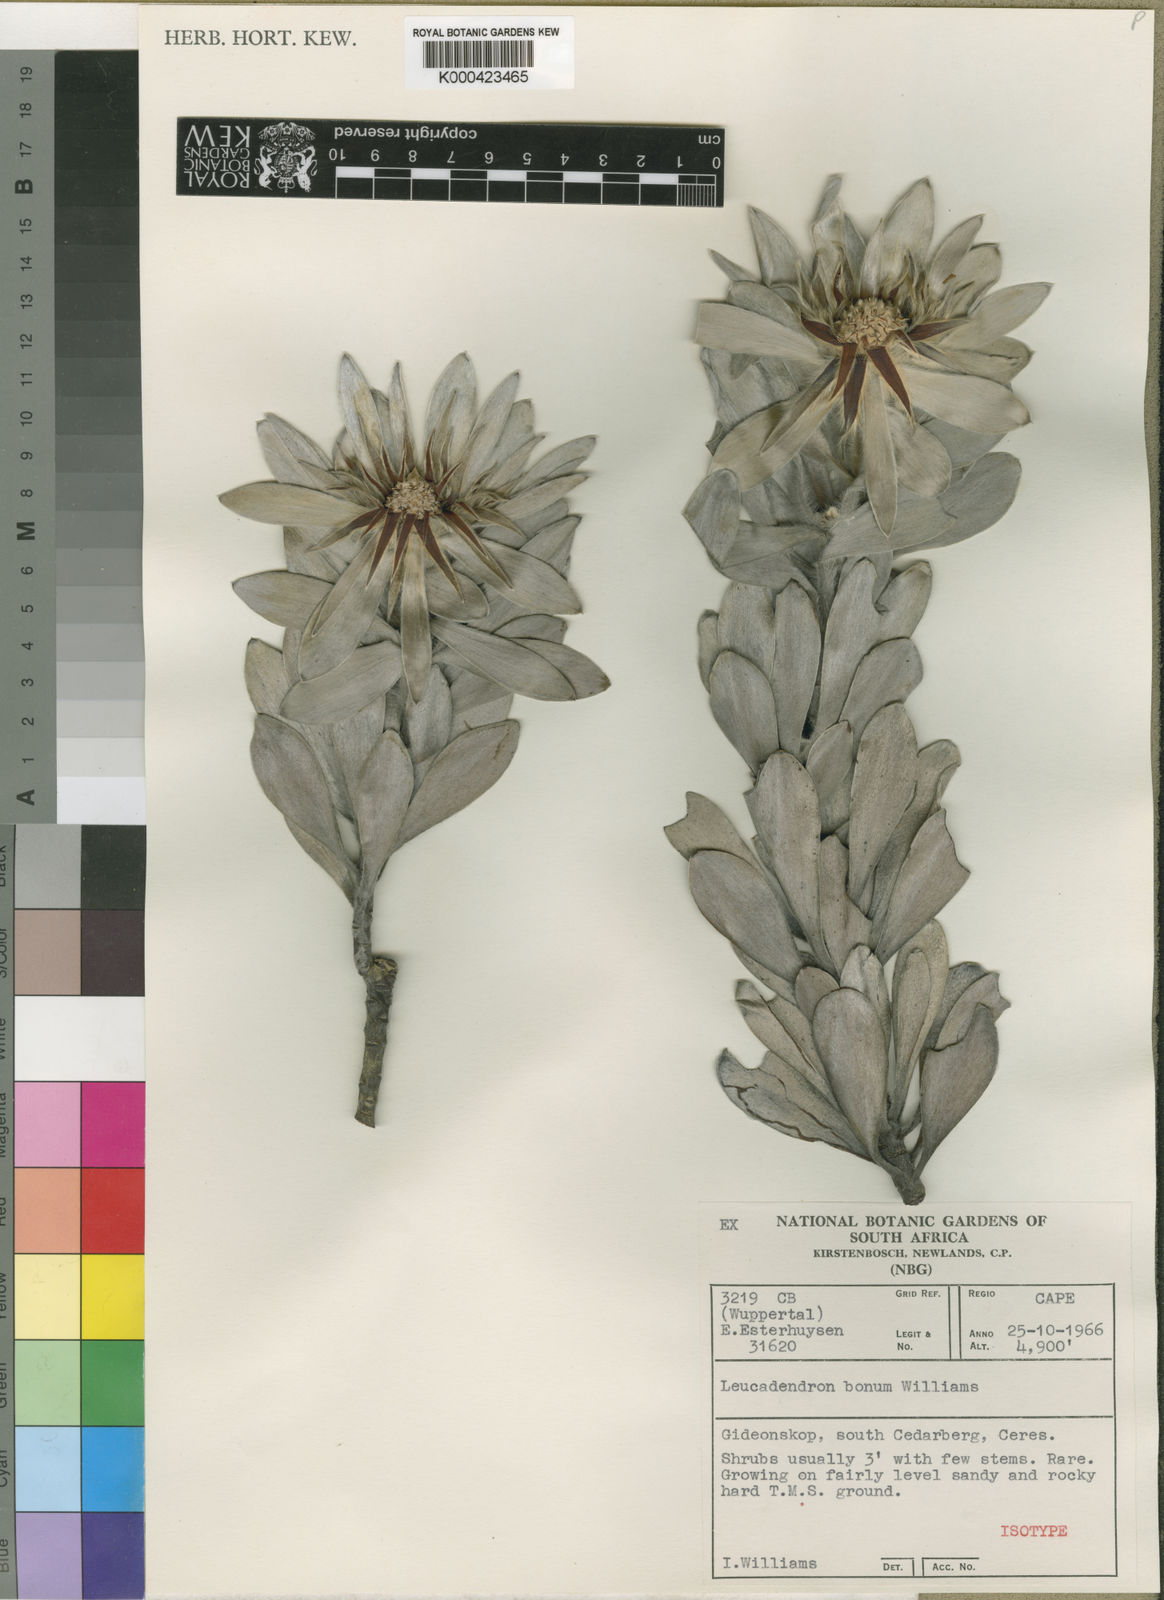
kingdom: Plantae
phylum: Tracheophyta
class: Magnoliopsida
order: Proteales
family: Proteaceae
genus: Leucadendron
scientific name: Leucadendron bonum
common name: Gideonskop conebush
